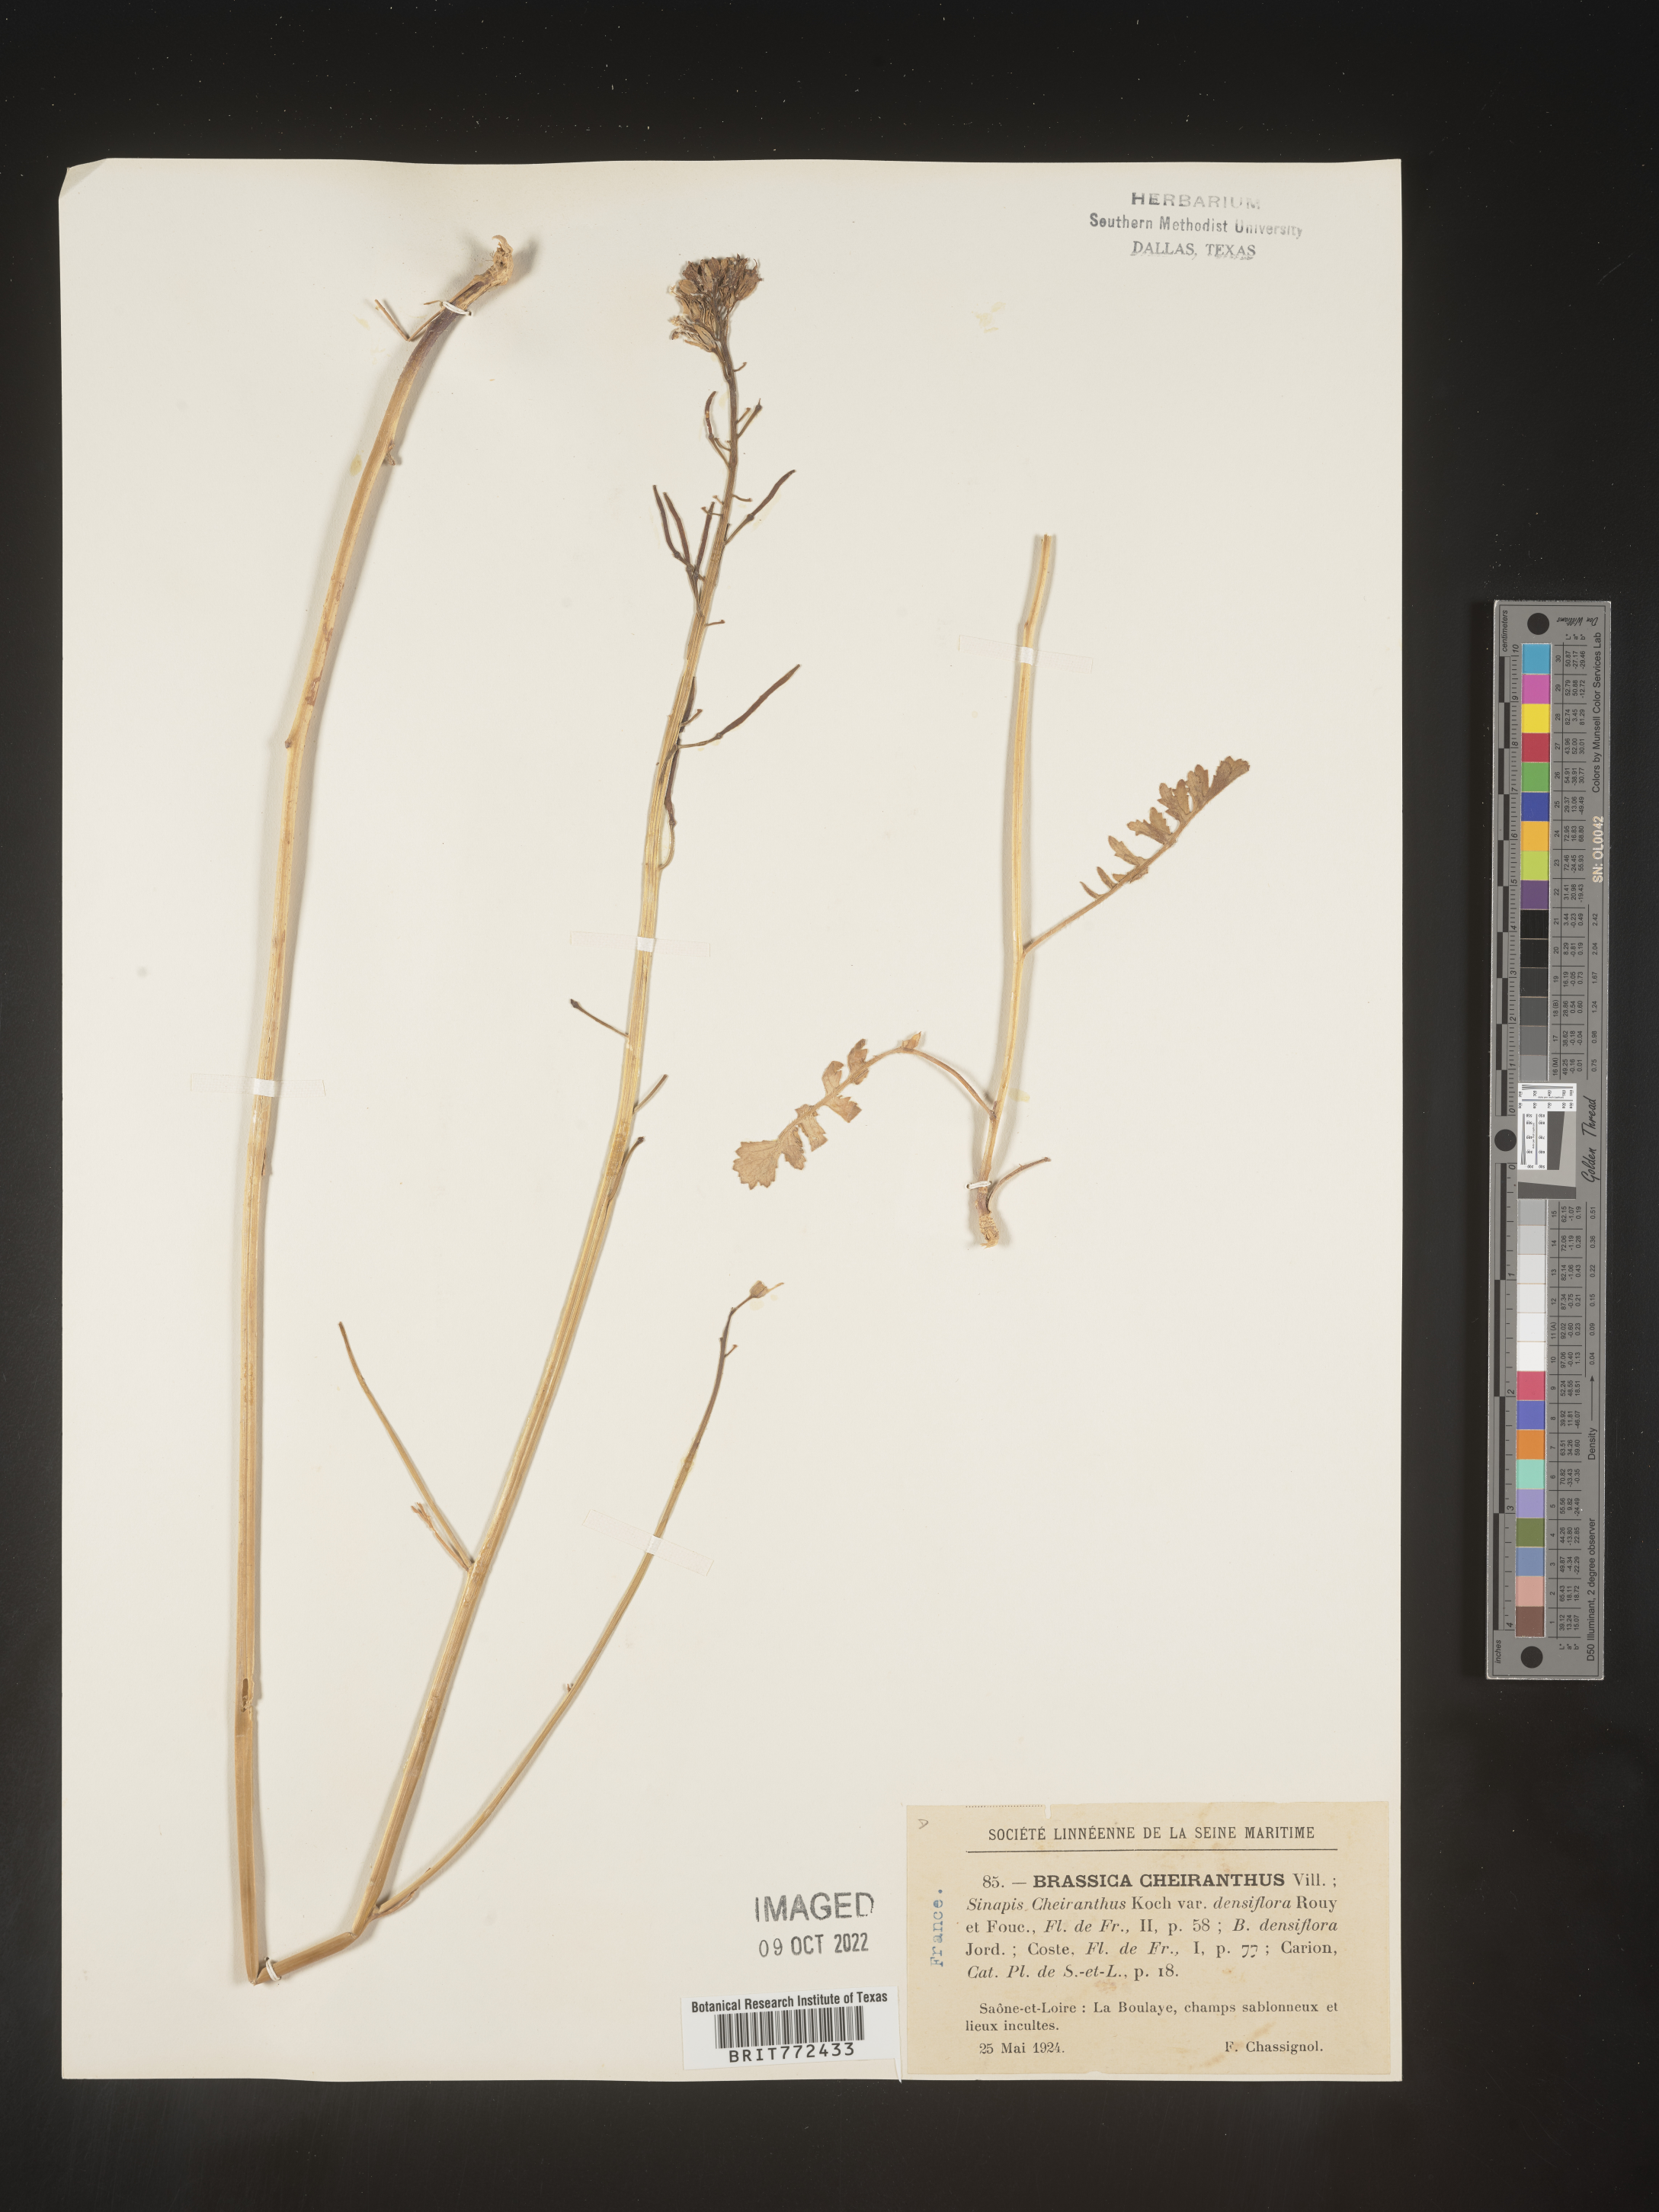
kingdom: Plantae
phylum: Tracheophyta
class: Magnoliopsida
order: Brassicales
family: Brassicaceae
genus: Brassica
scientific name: Brassica
